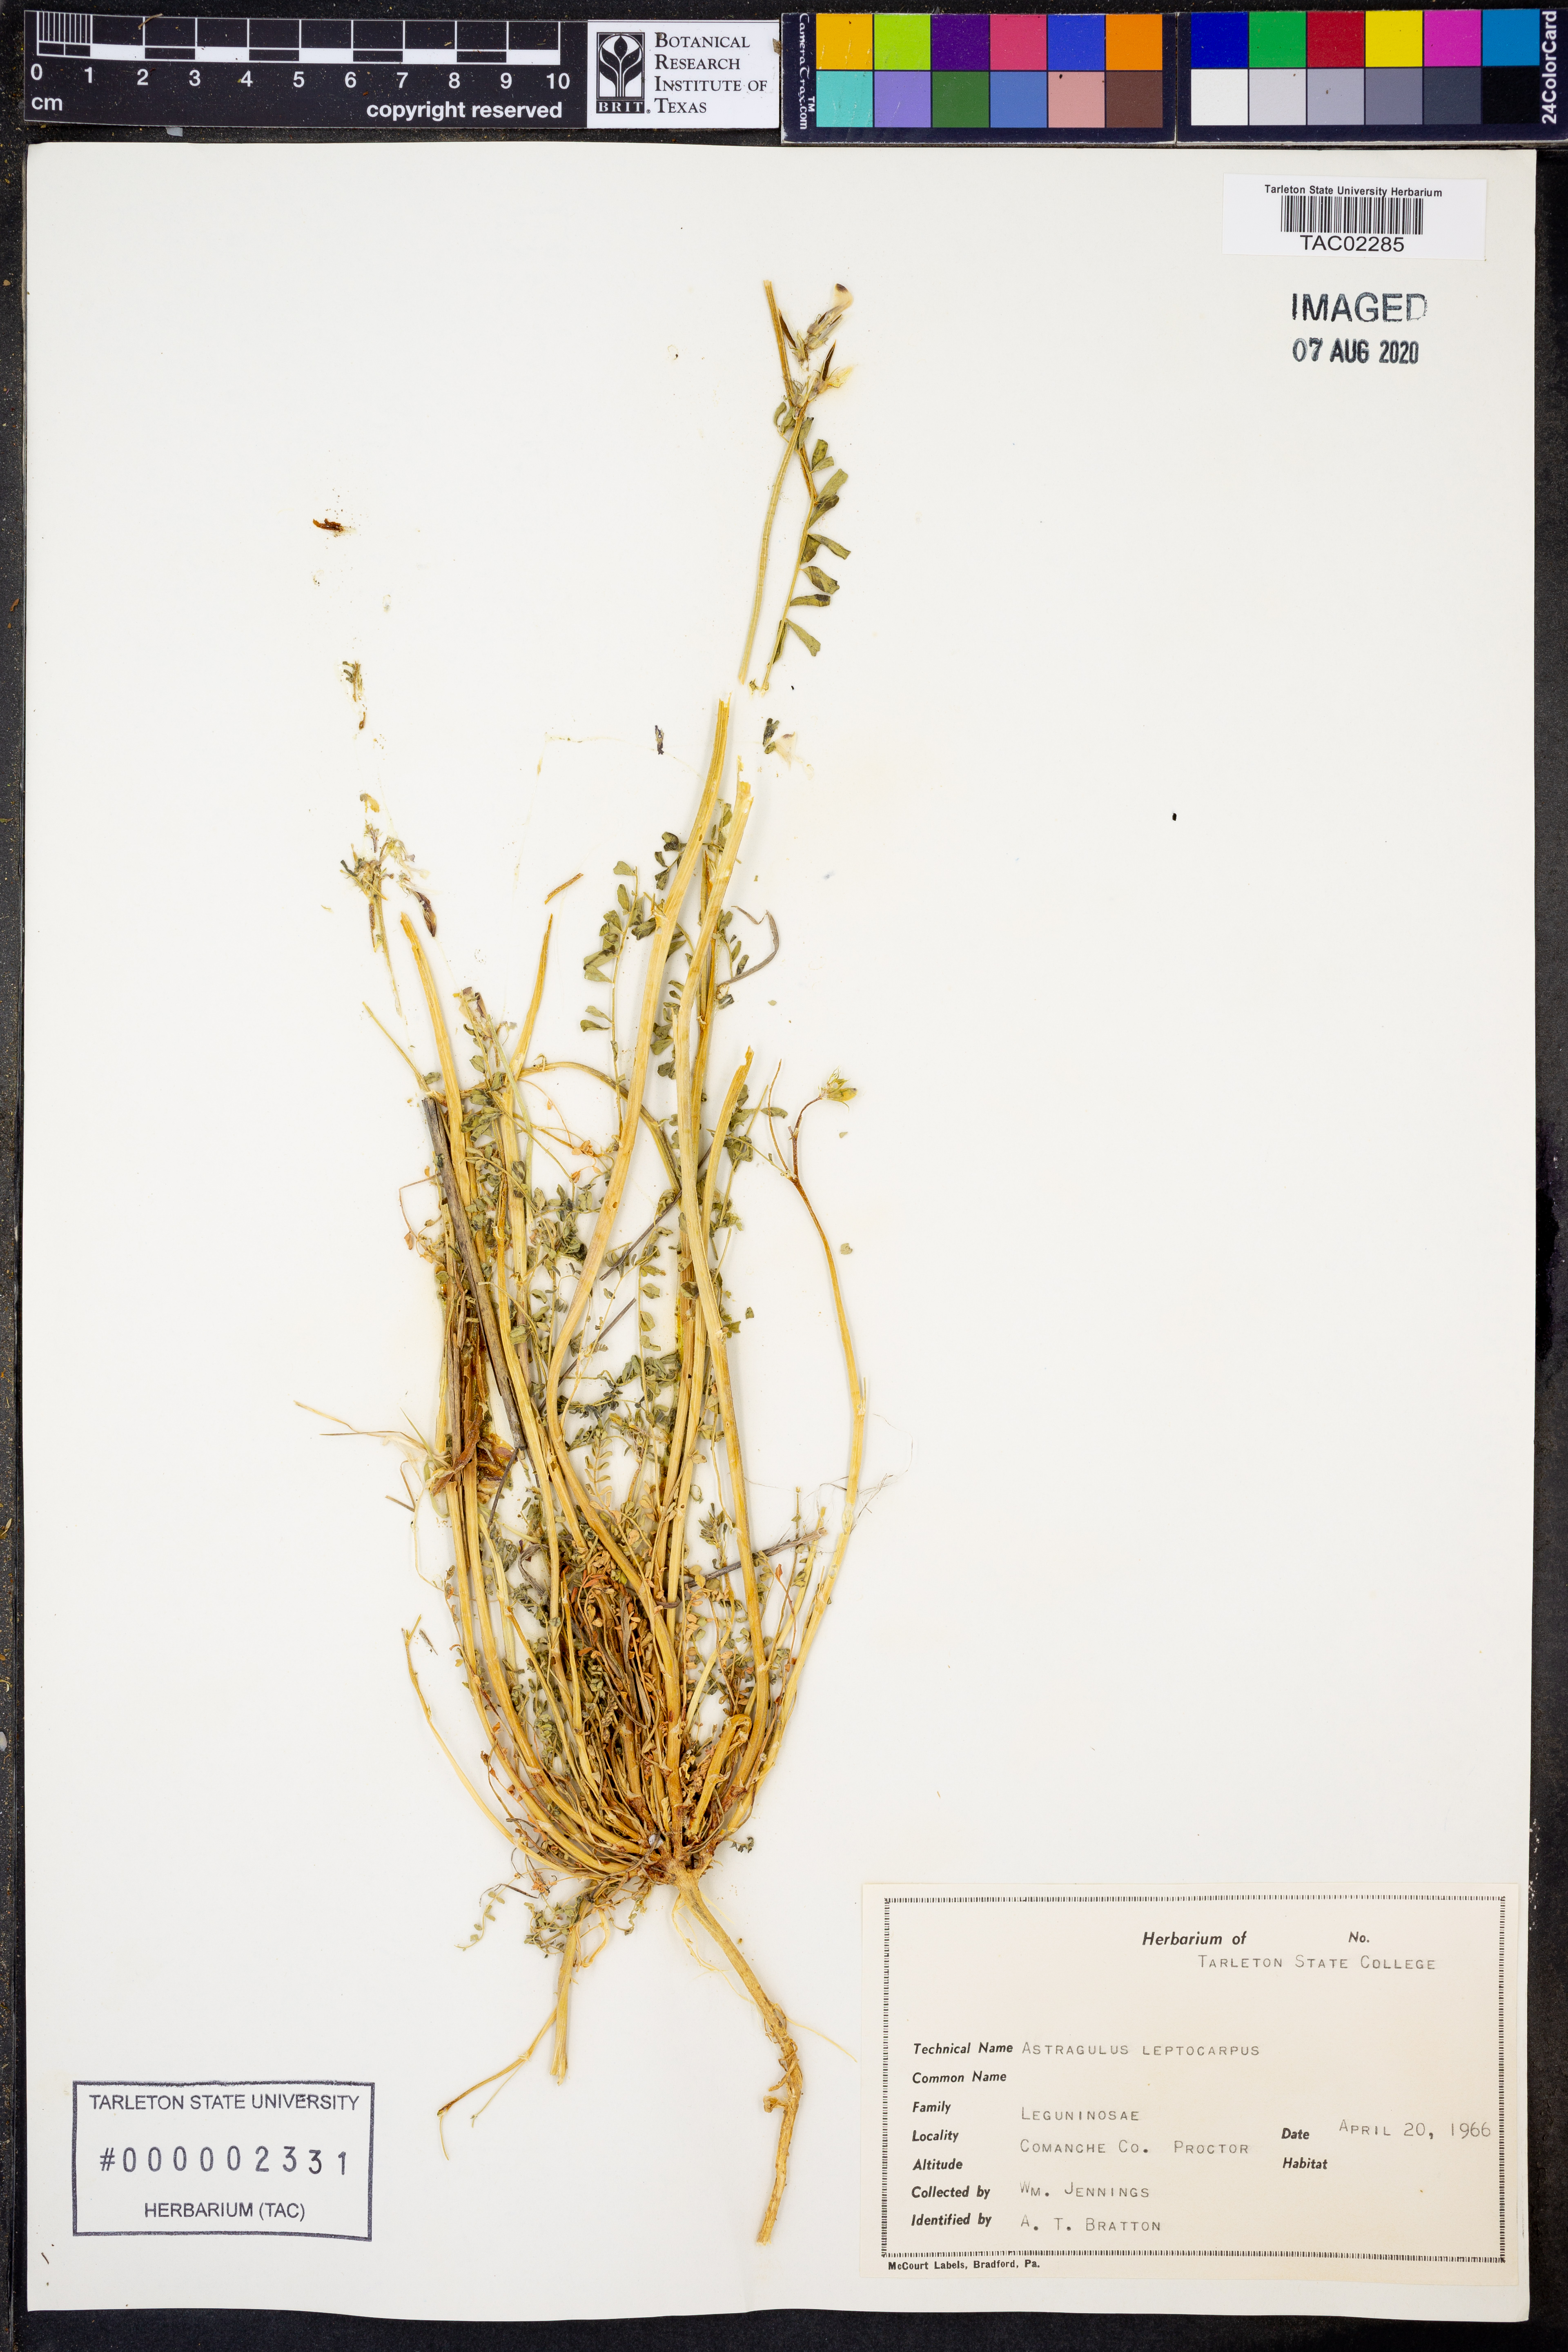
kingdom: Plantae
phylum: Tracheophyta
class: Magnoliopsida
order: Fabales
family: Fabaceae
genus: Astragalus
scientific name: Astragalus leptocarpus
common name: Bodkin milk-vetch
